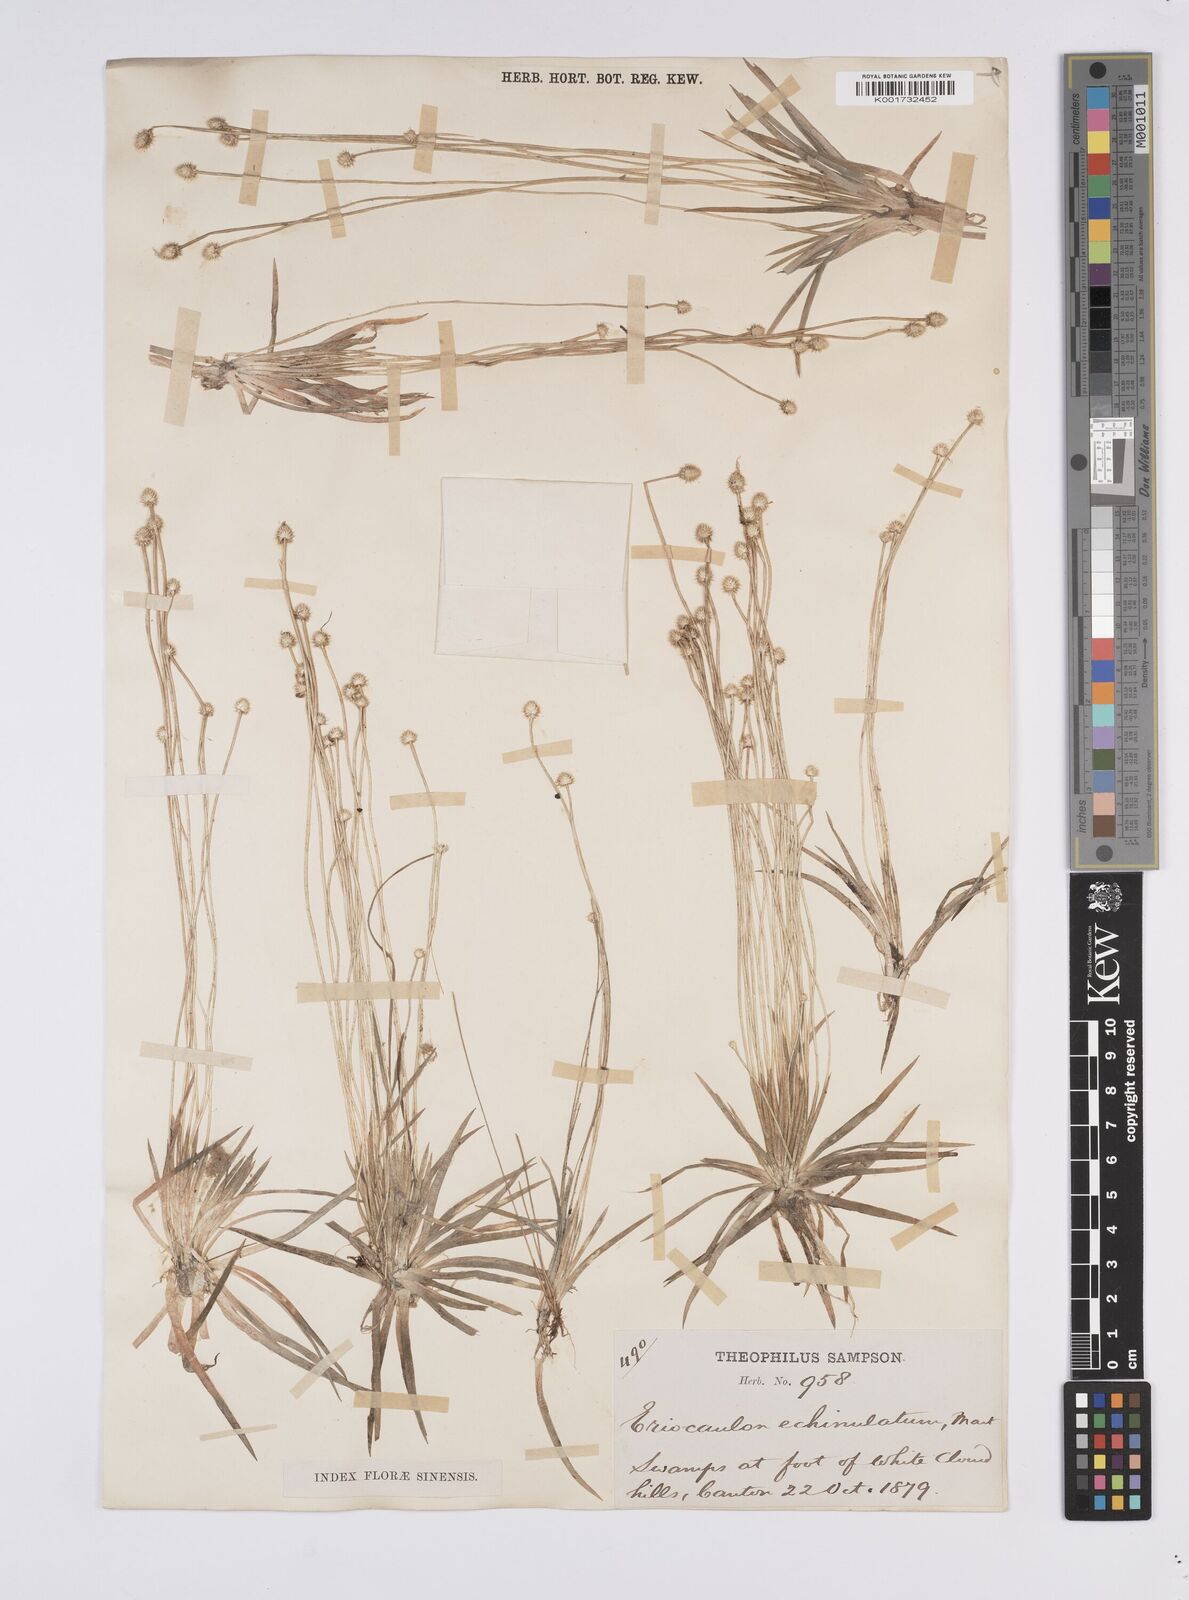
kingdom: Plantae
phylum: Tracheophyta
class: Liliopsida
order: Poales
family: Eriocaulaceae
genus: Eriocaulon
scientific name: Eriocaulon echinulatum
